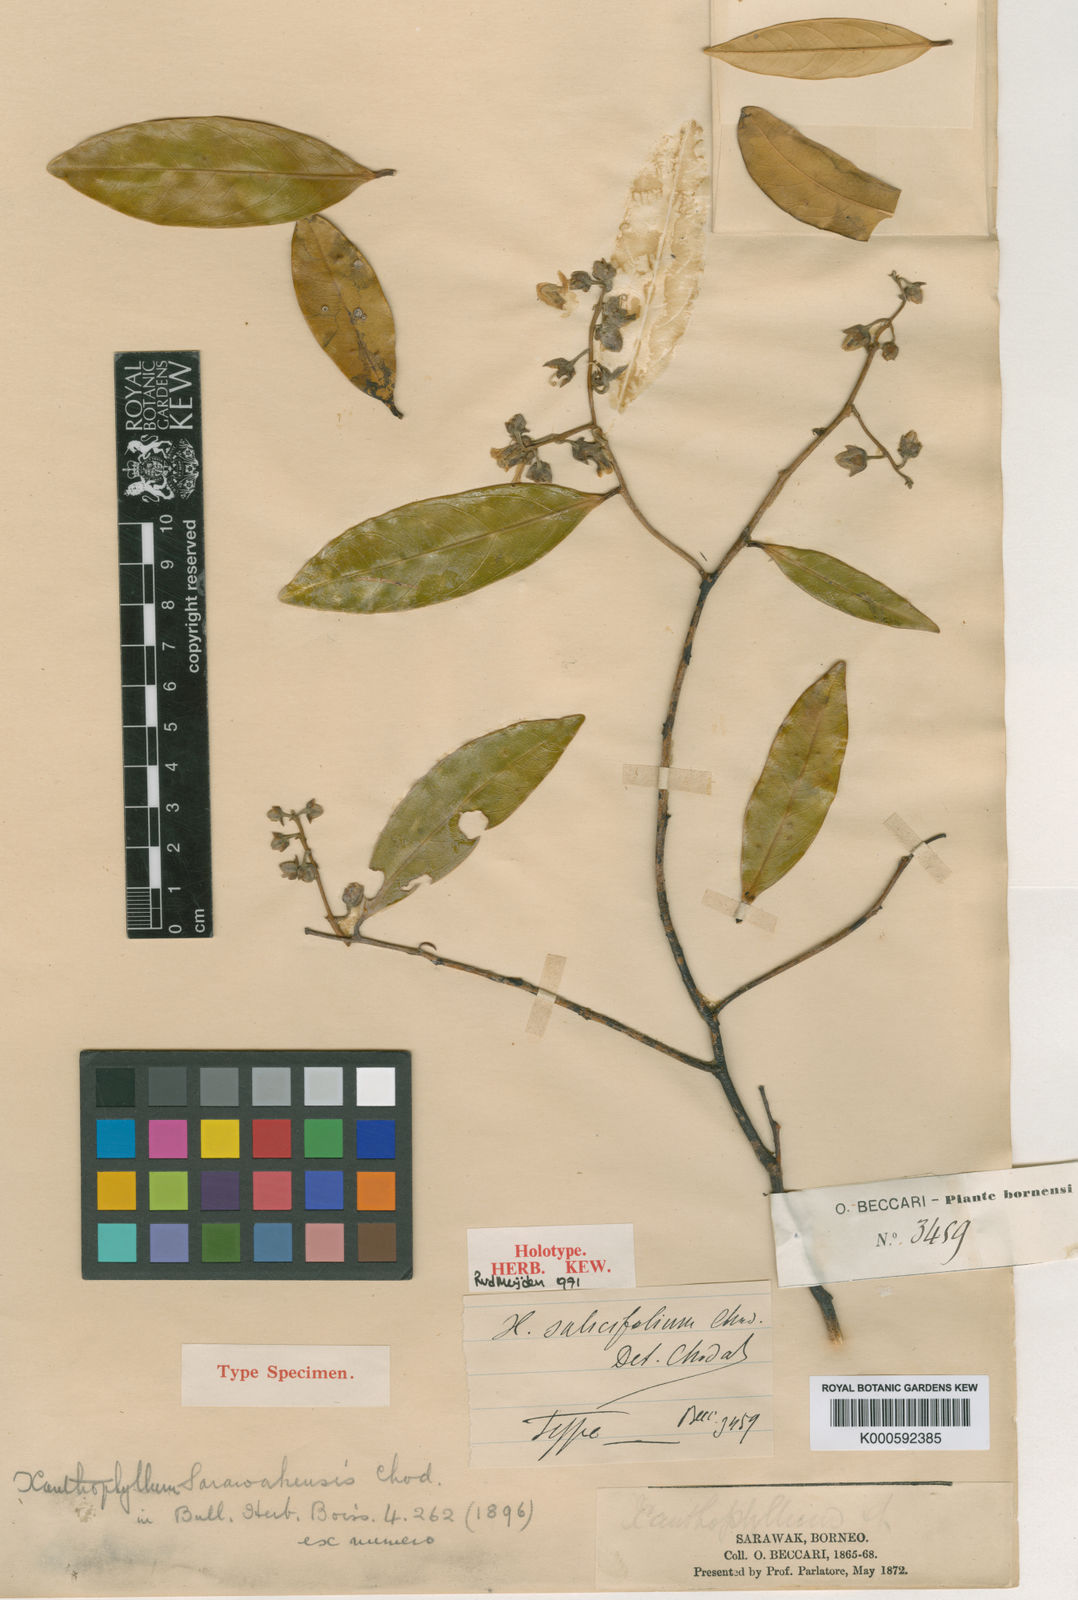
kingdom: Plantae
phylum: Tracheophyta
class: Magnoliopsida
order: Fabales
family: Polygalaceae
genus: Xanthophyllum
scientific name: Xanthophyllum flavescens
